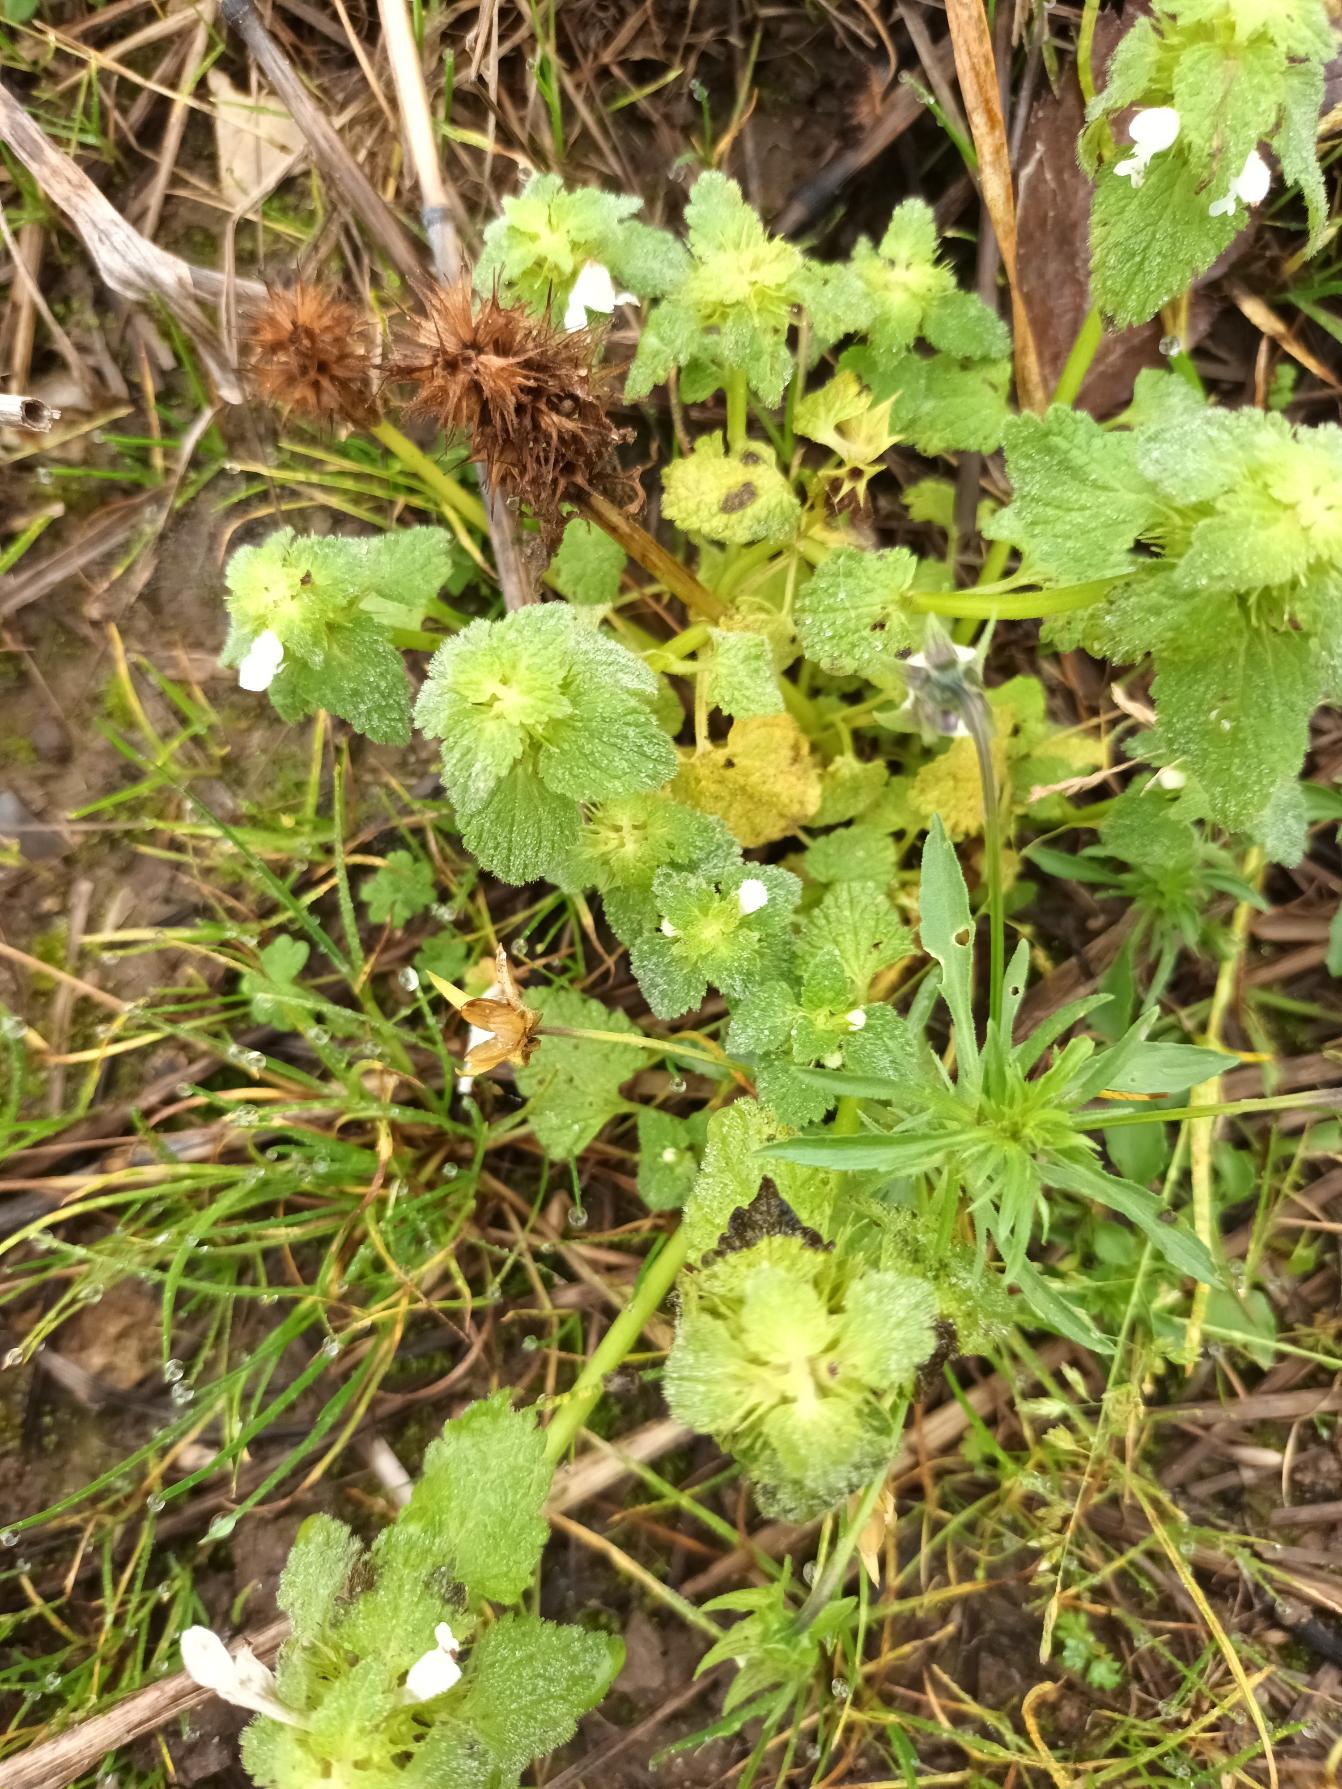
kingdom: Plantae
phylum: Tracheophyta
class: Magnoliopsida
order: Lamiales
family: Lamiaceae
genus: Lamium
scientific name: Lamium purpureum
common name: Rød tvetand
